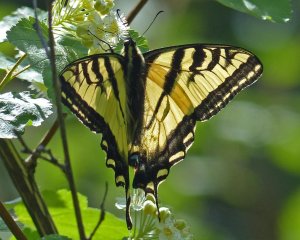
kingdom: Animalia
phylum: Arthropoda
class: Insecta
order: Lepidoptera
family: Papilionidae
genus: Pterourus
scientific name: Pterourus rutulus
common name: Western Tiger Swallowtail
